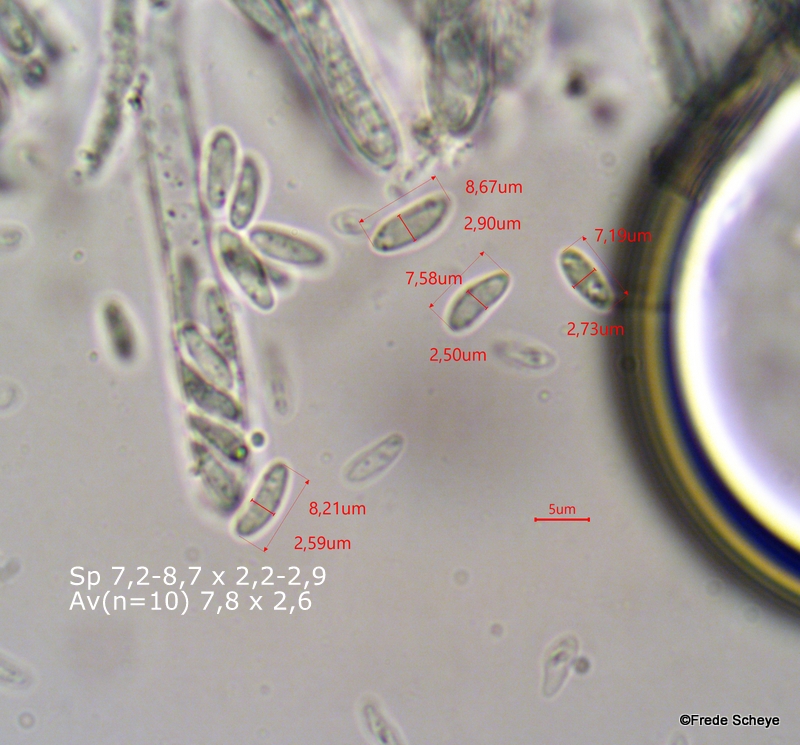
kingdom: Fungi
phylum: Ascomycota
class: Leotiomycetes
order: Helotiales
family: Mollisiaceae
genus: Tapesia
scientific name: Tapesia fusca
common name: tæppe-gråskive
